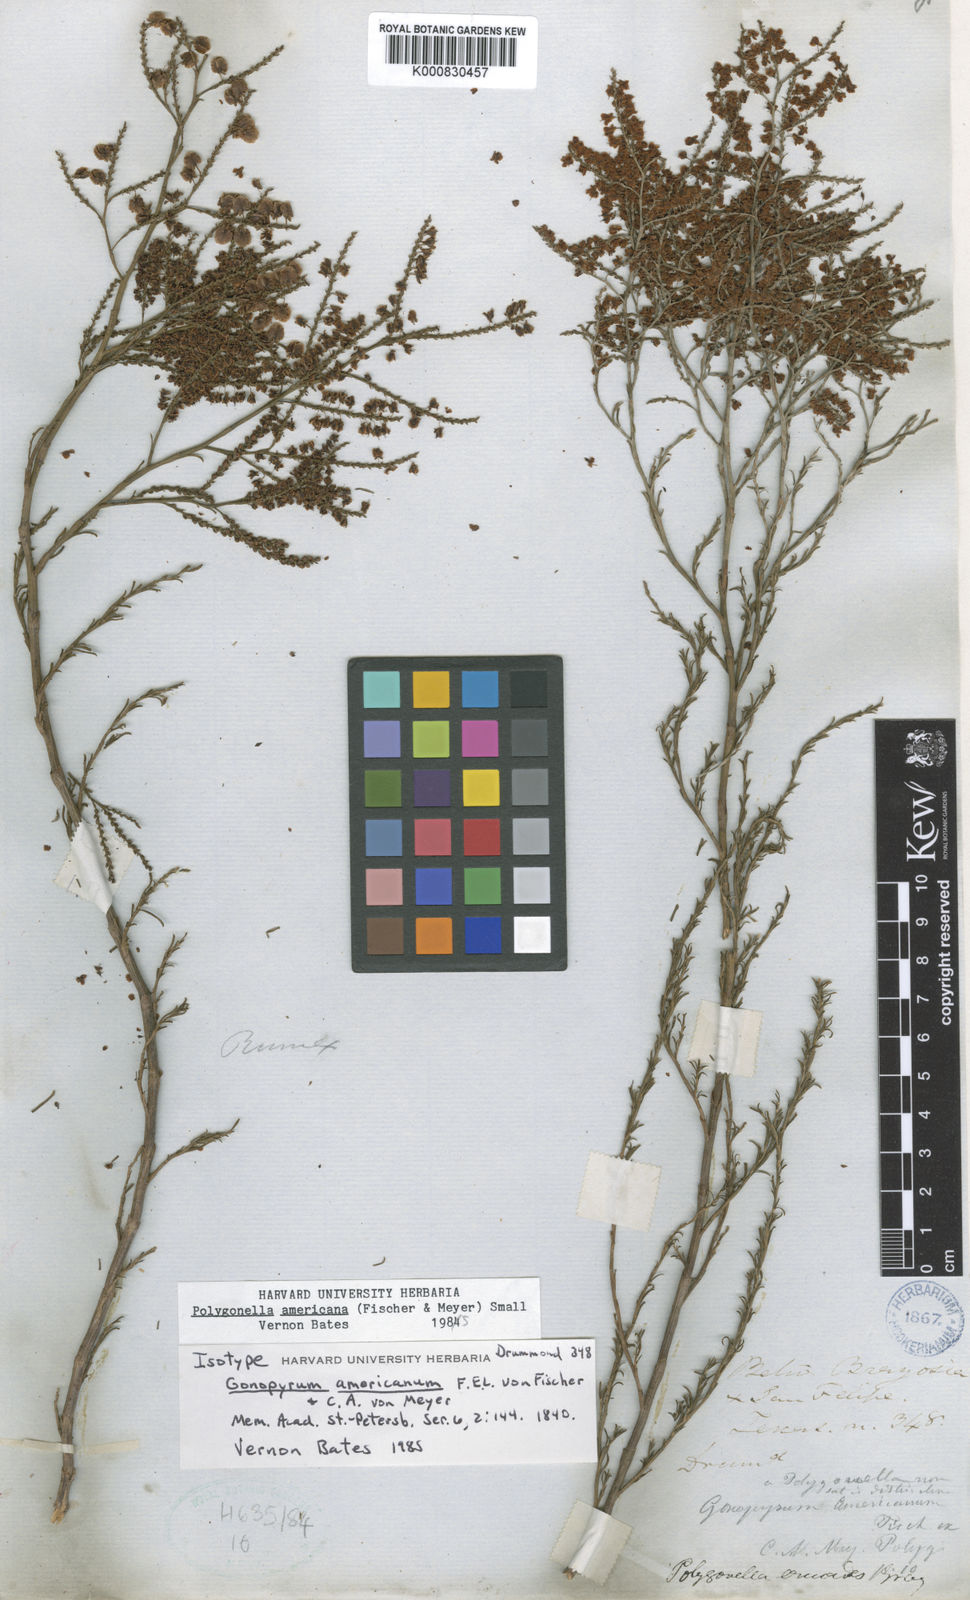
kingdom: Plantae
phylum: Tracheophyta
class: Magnoliopsida
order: Caryophyllales
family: Polygonaceae
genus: Polygonella
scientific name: Polygonella americana
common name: Southern jointweed
